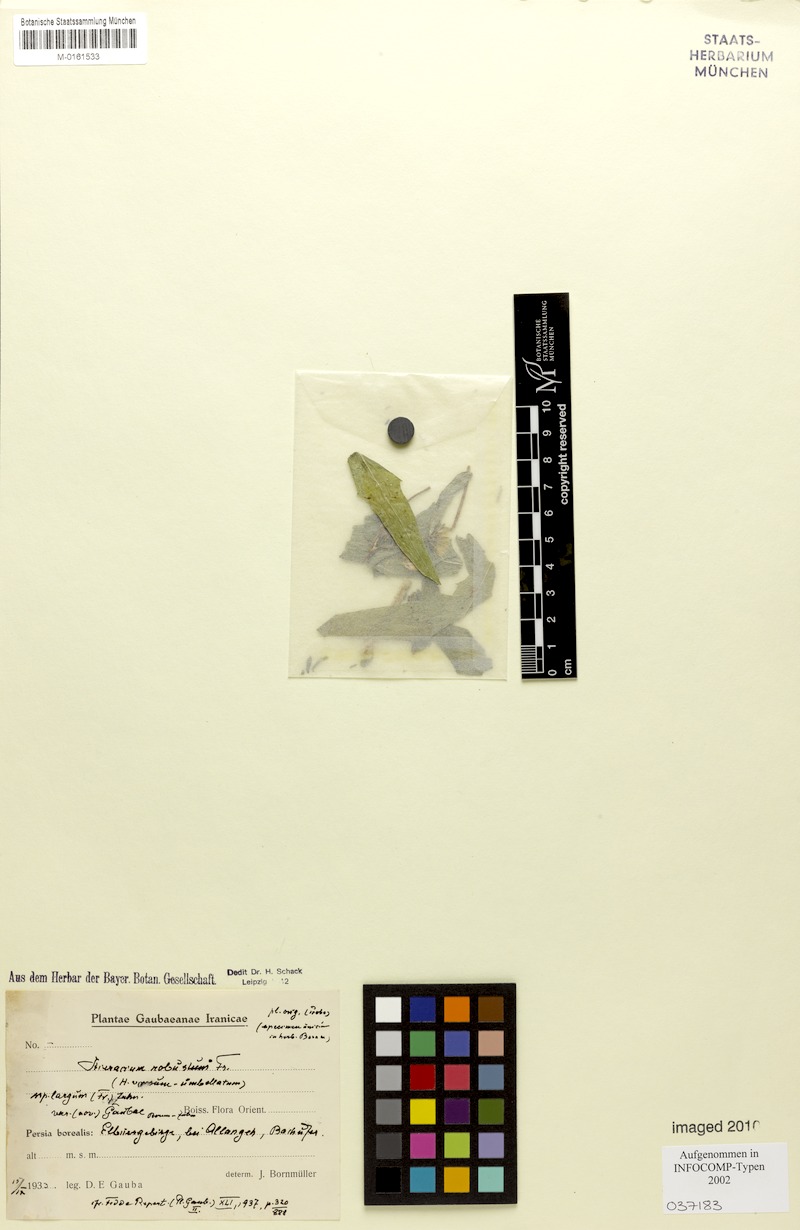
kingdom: Plantae
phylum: Tracheophyta
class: Magnoliopsida
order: Asterales
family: Asteraceae
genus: Hieracium
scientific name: Hieracium robustum
